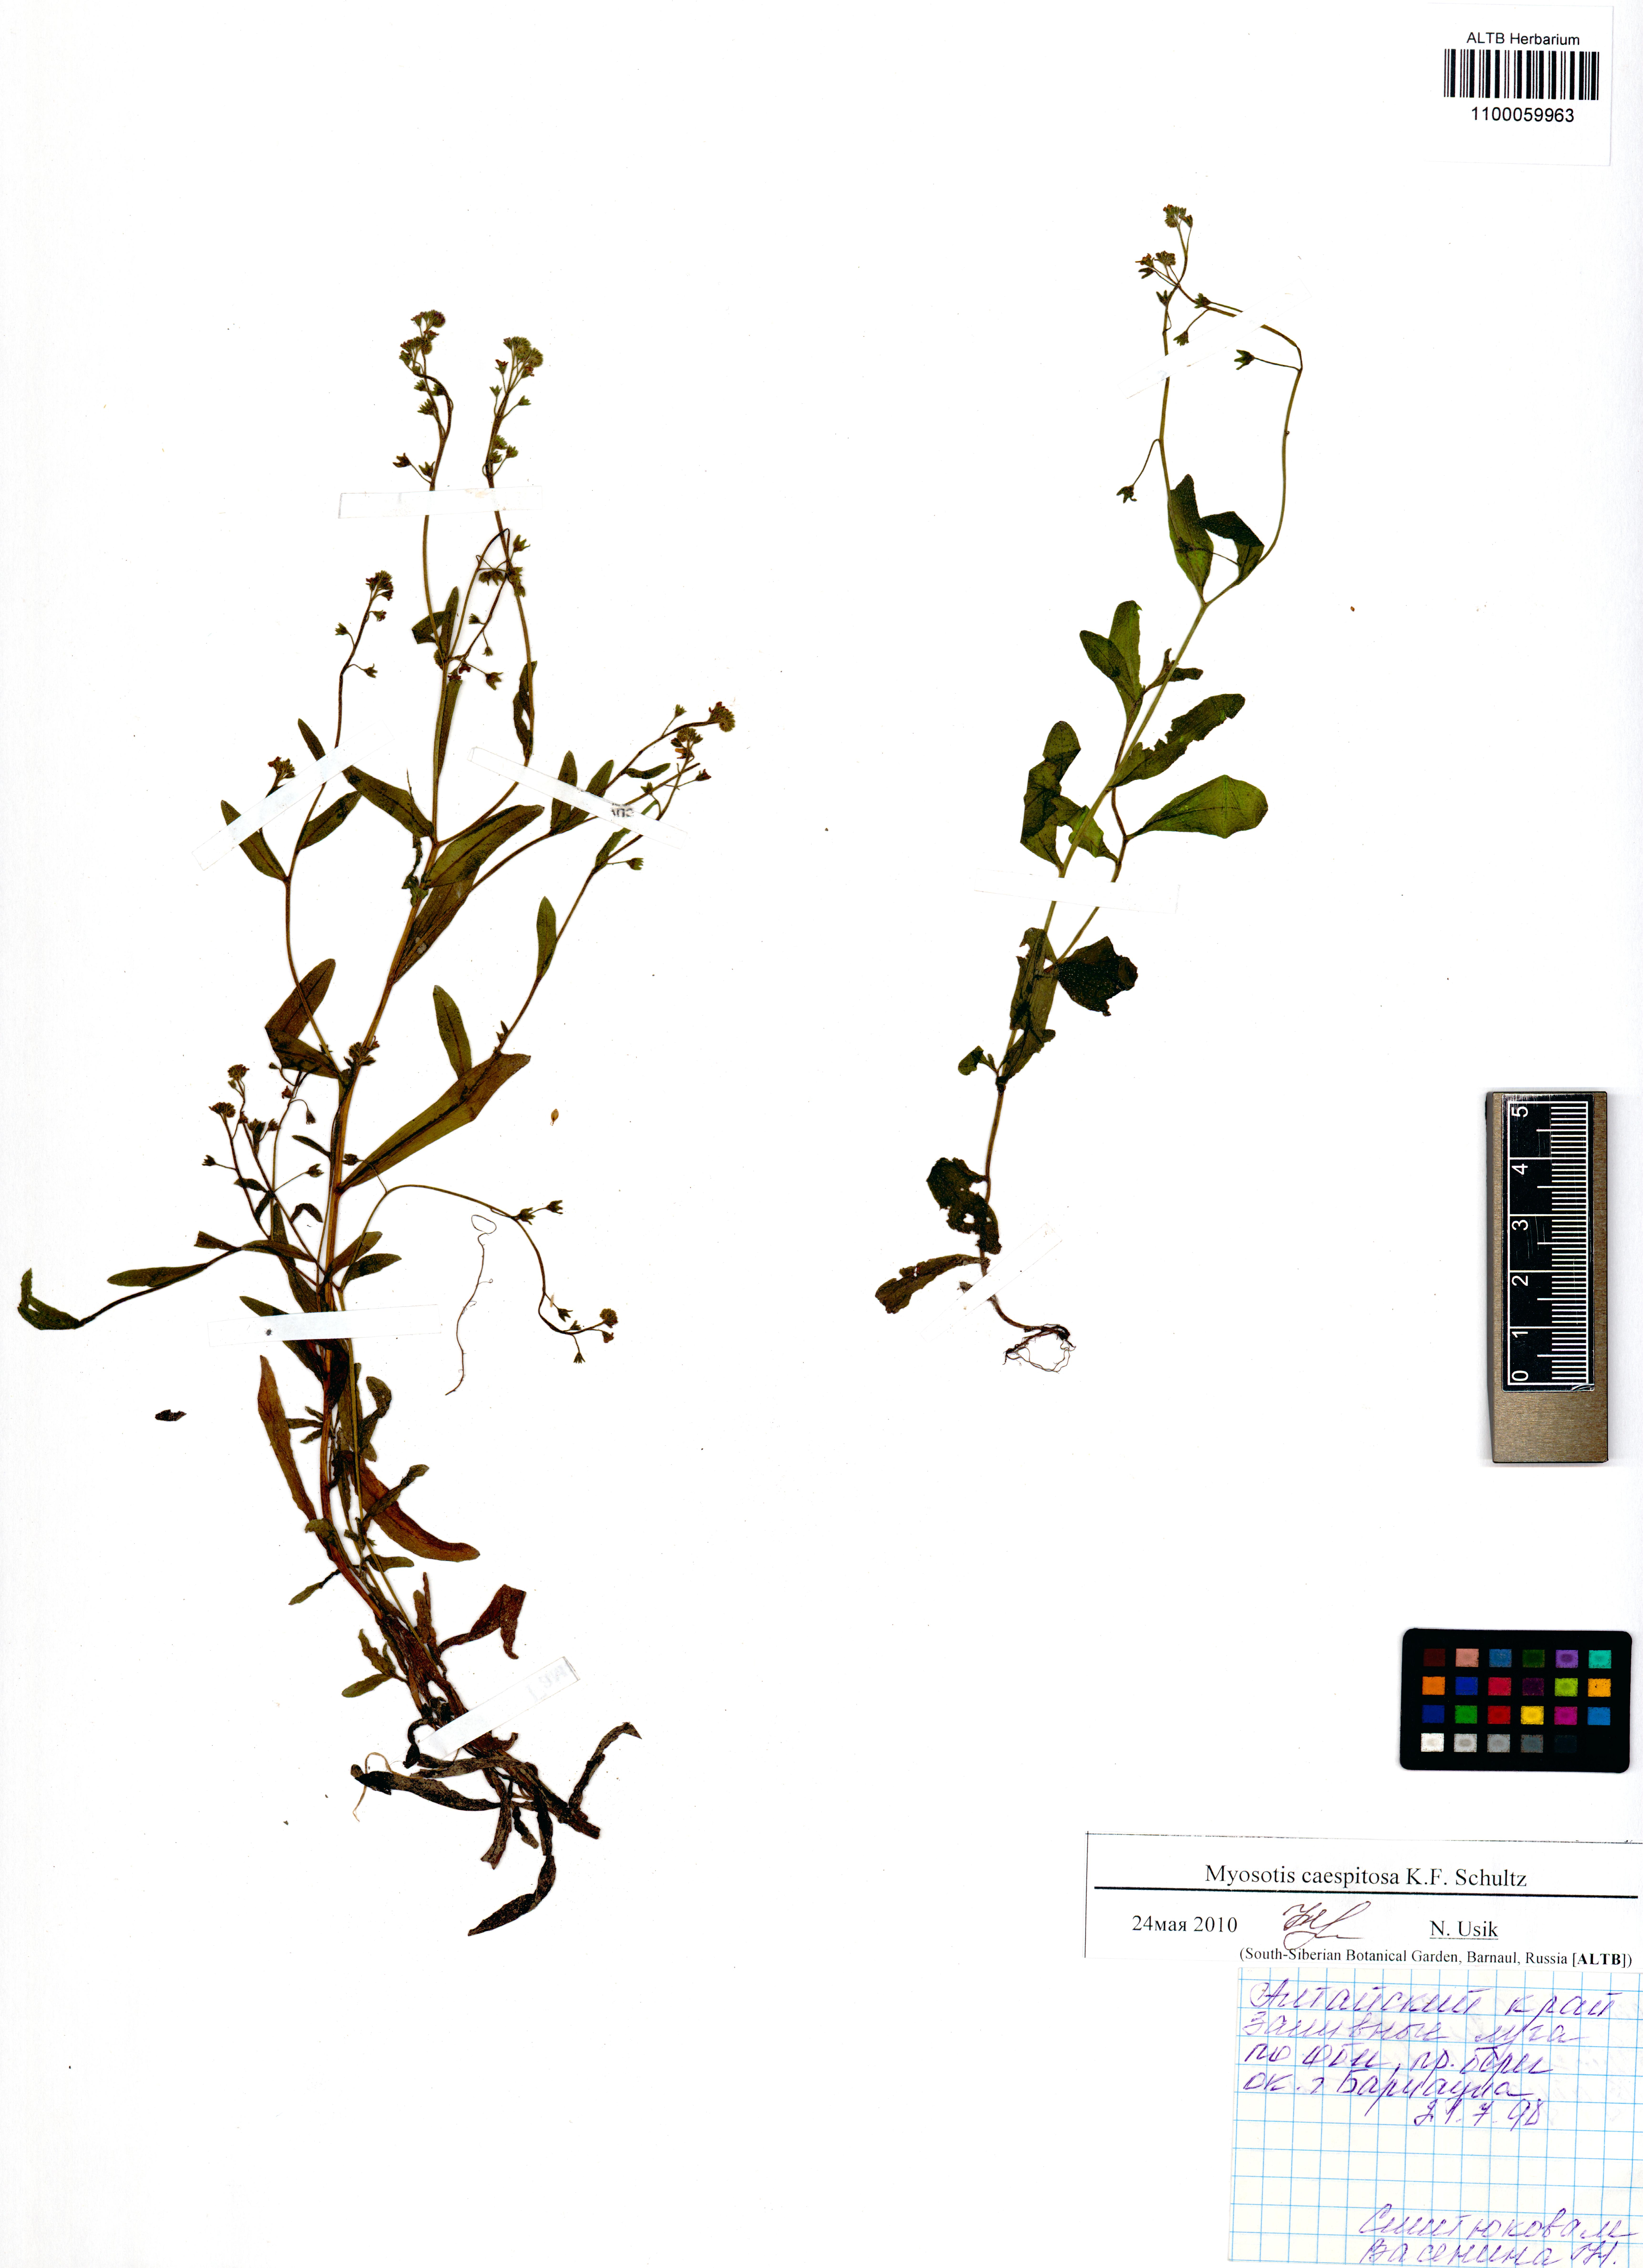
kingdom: Plantae
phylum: Tracheophyta
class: Magnoliopsida
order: Boraginales
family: Boraginaceae
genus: Myosotis
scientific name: Myosotis laxa
